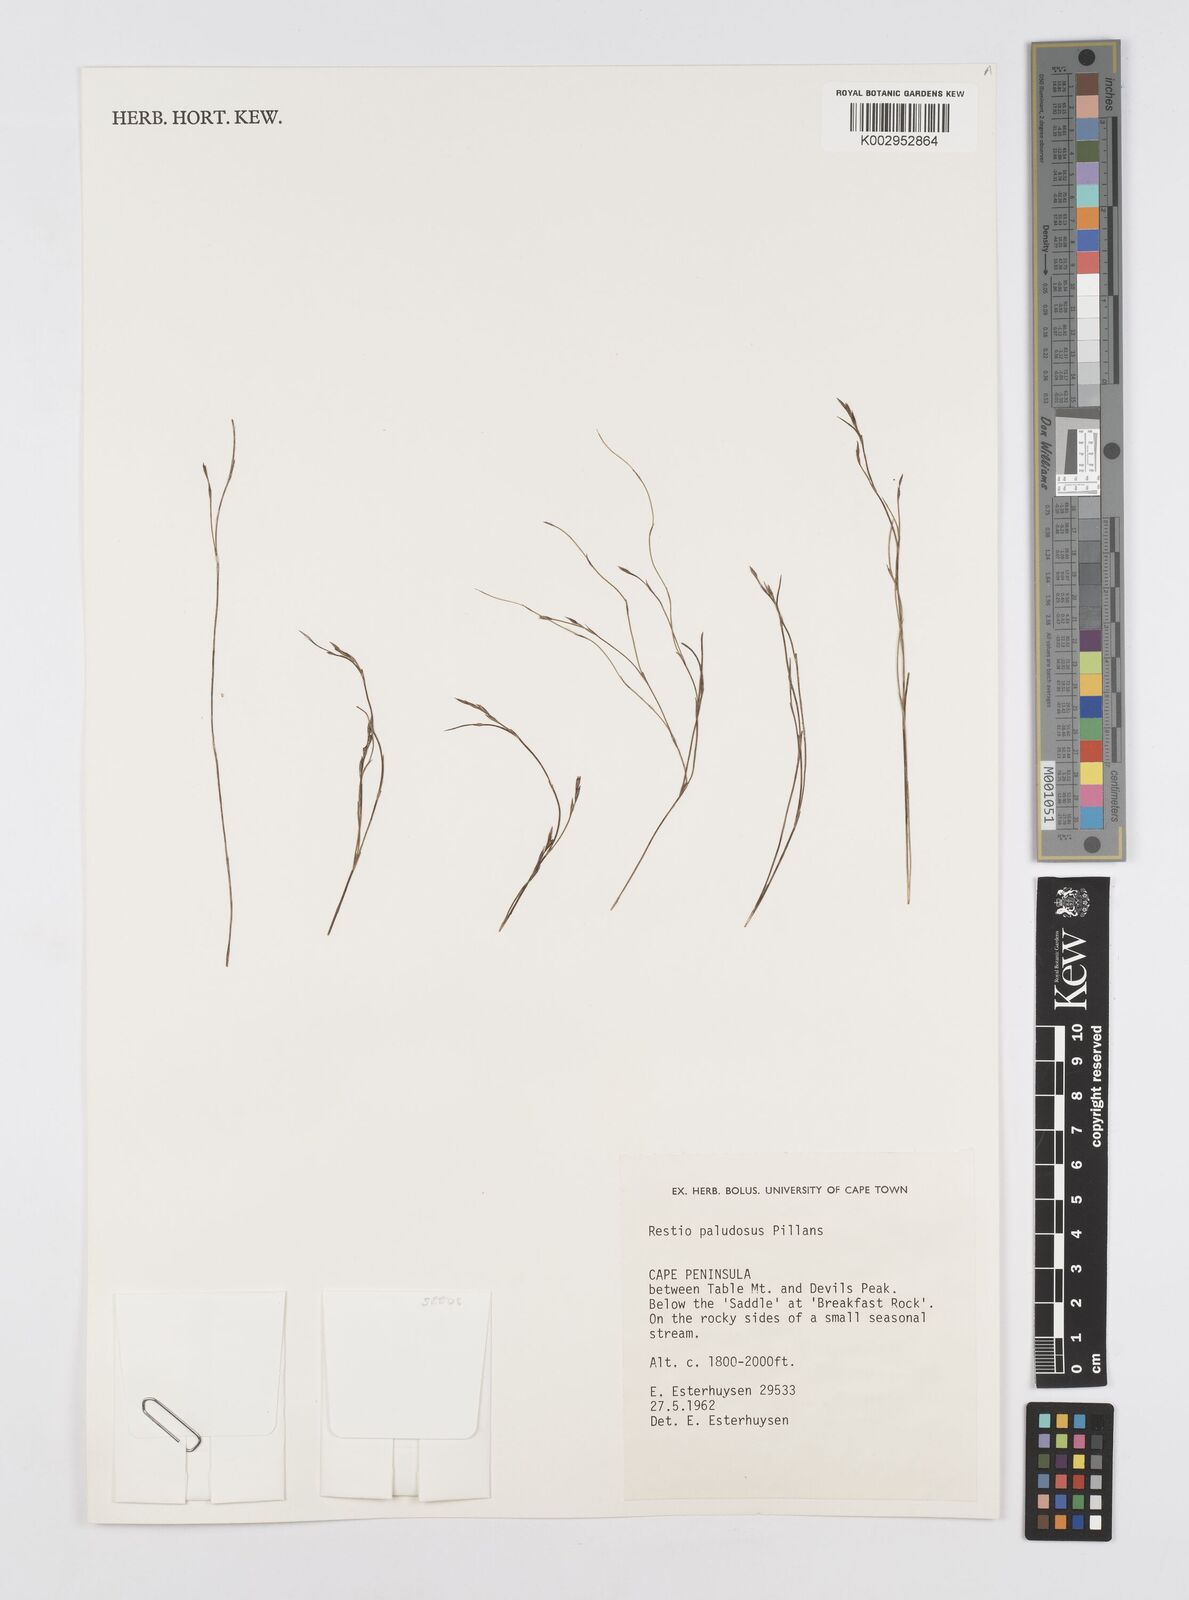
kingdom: Plantae
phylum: Tracheophyta
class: Liliopsida
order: Poales
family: Restionaceae
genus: Restio
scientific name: Restio paludosus
